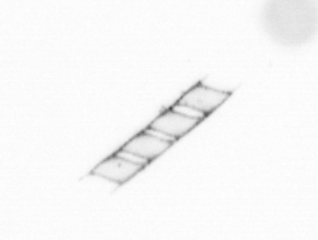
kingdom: Chromista
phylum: Ochrophyta
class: Bacillariophyceae
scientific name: Bacillariophyceae
